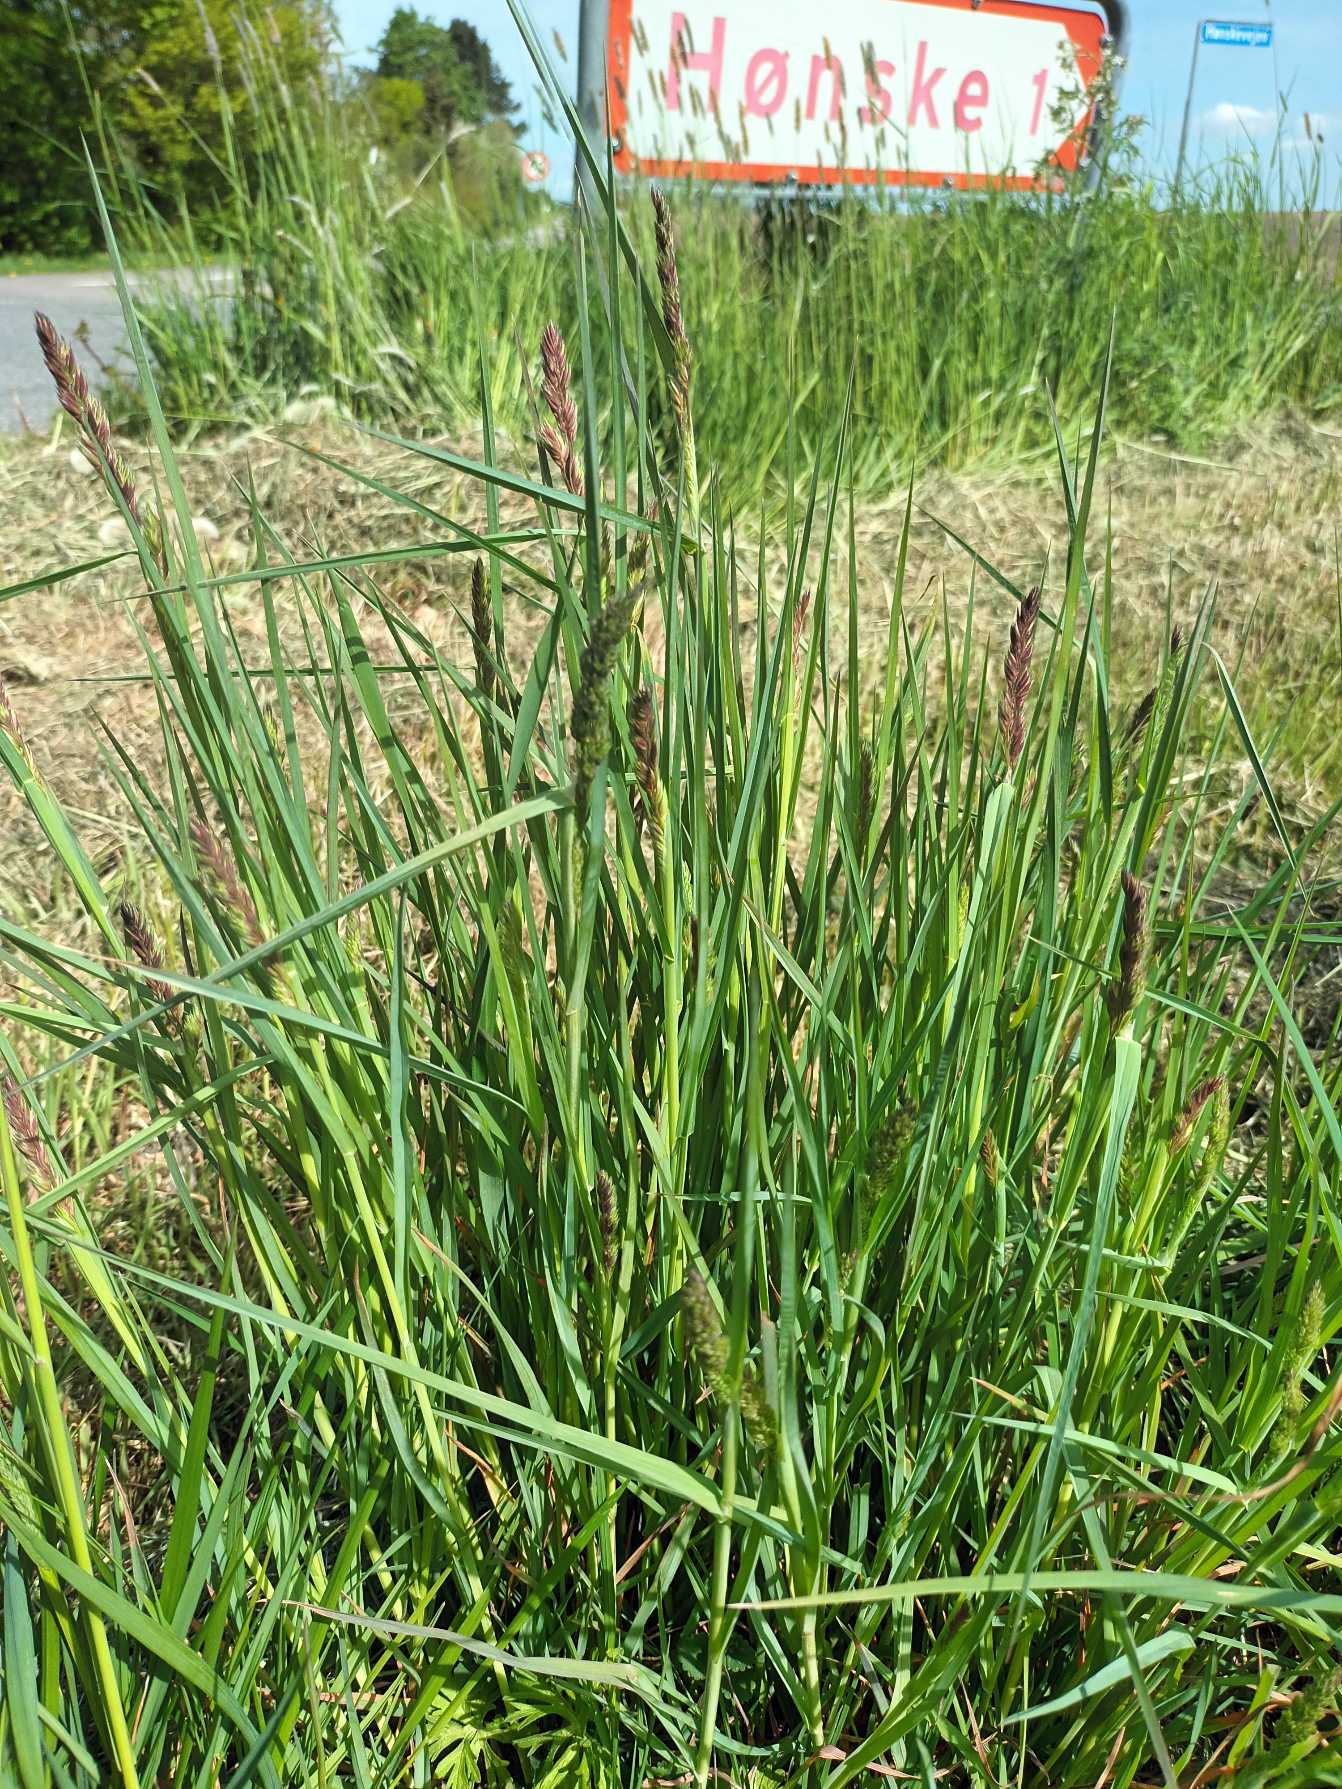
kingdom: Plantae
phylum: Tracheophyta
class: Liliopsida
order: Poales
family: Poaceae
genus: Dactylis
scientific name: Dactylis glomerata
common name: Almindelig hundegræs
